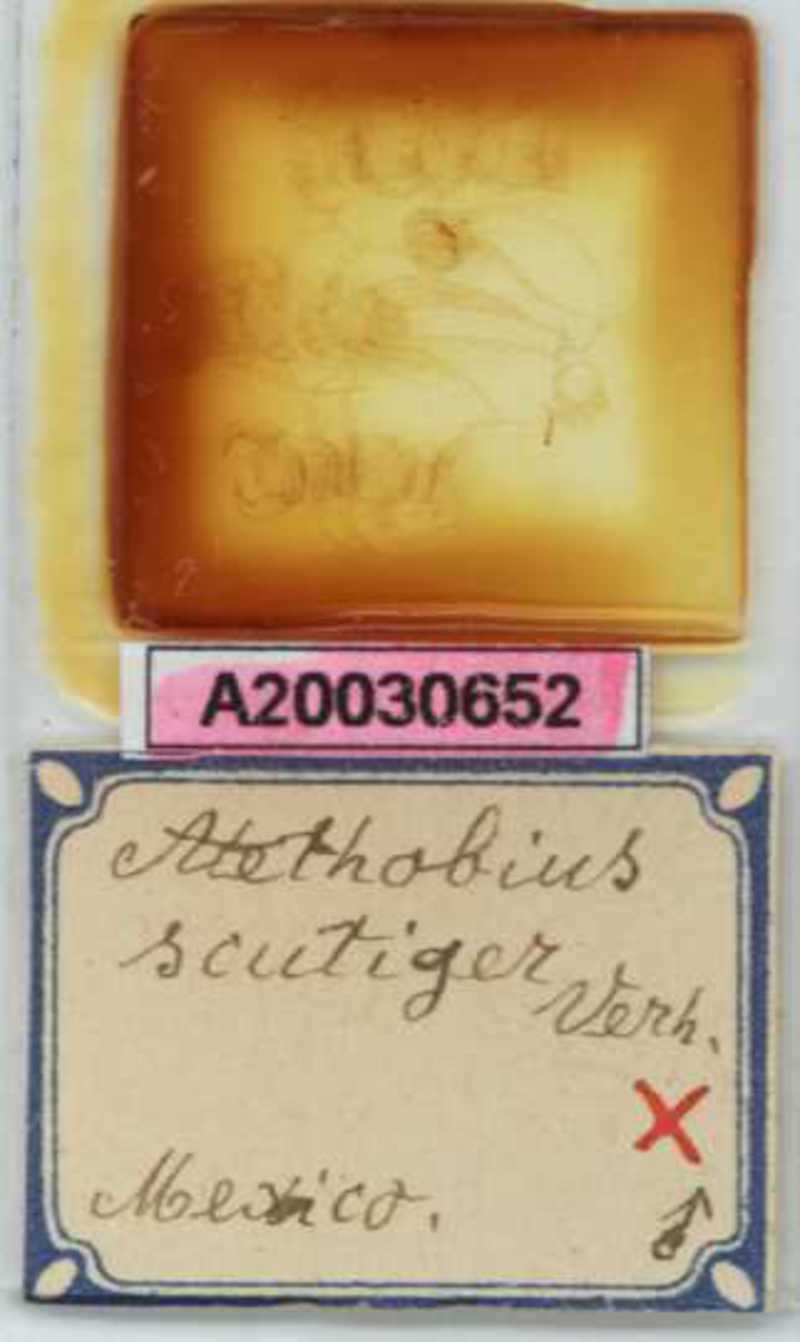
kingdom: Animalia
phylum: Arthropoda
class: Chilopoda
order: Lithobiomorpha
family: Lithobiidae
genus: Atethobius
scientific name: Atethobius scutiger
